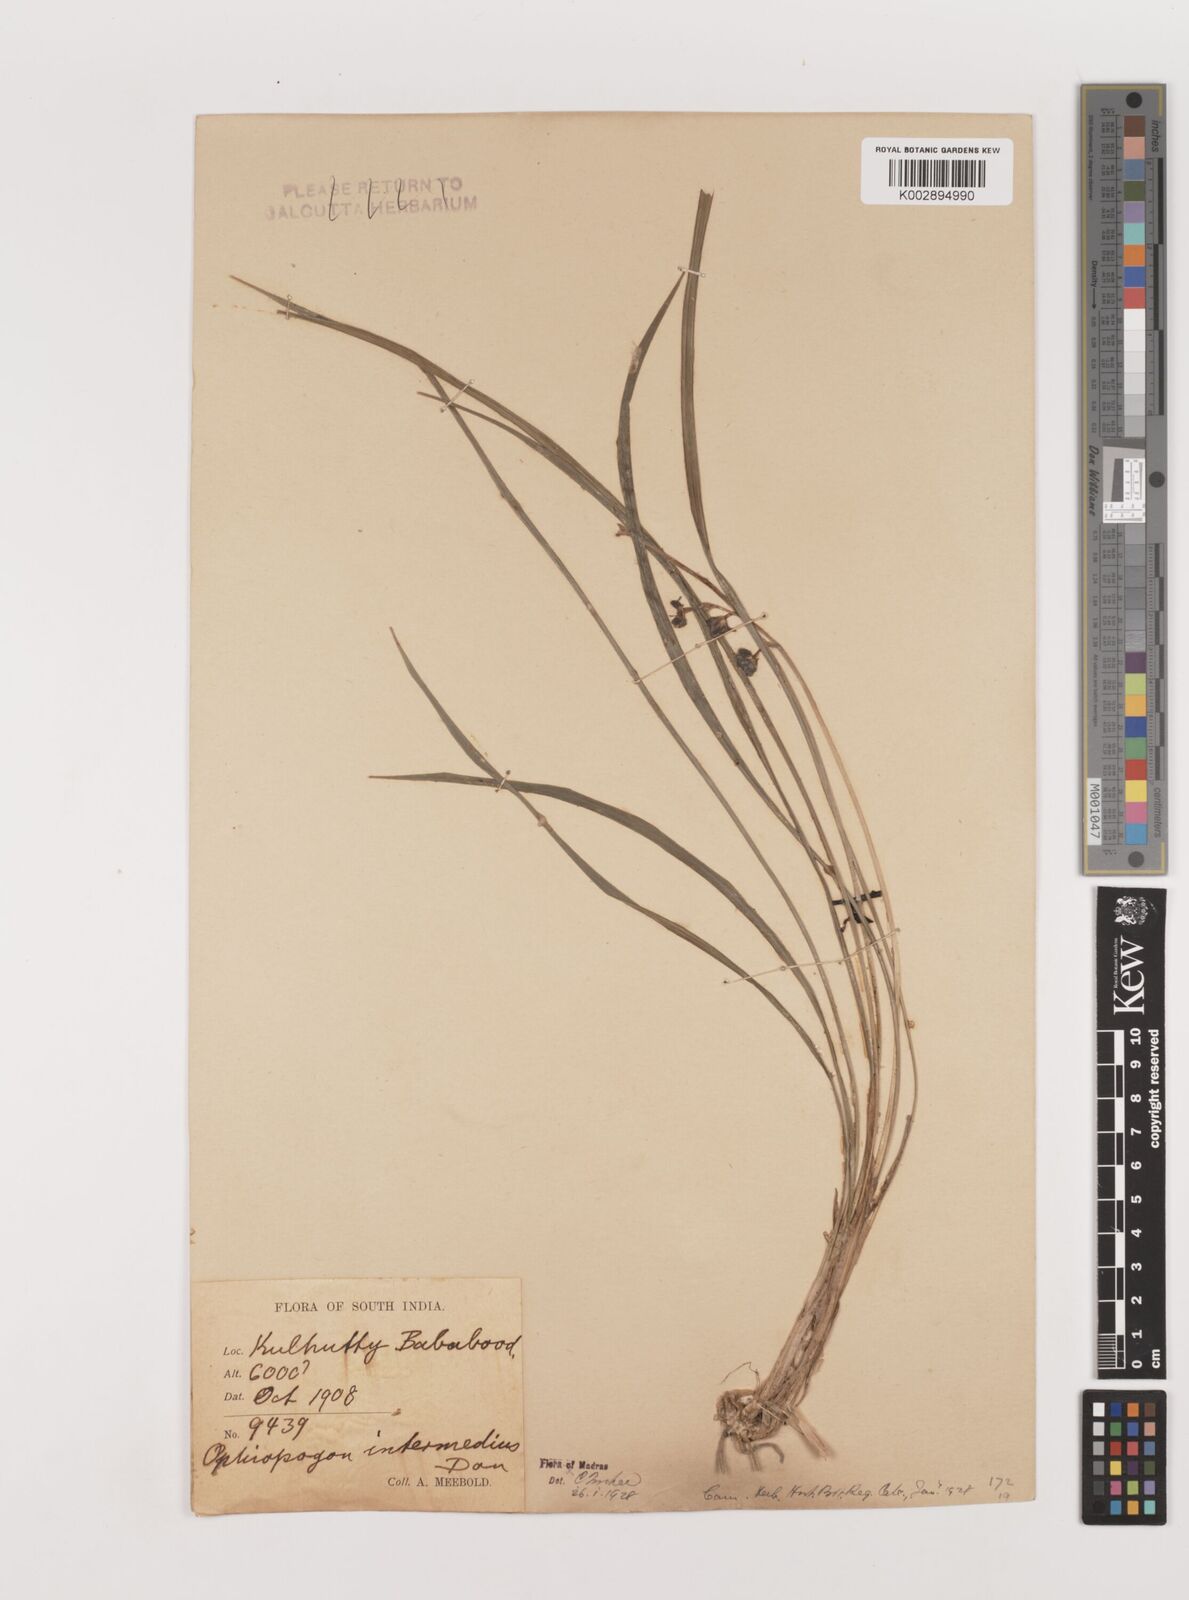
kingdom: Plantae
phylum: Tracheophyta
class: Liliopsida
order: Asparagales
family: Asparagaceae
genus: Ophiopogon
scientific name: Ophiopogon intermedius
